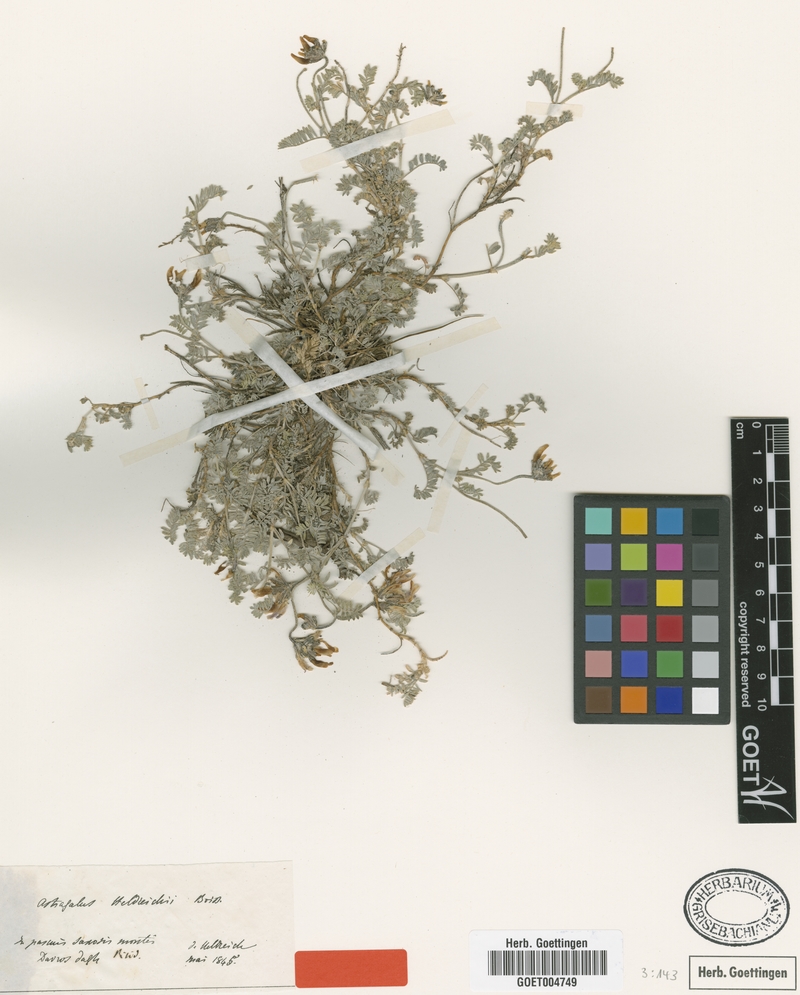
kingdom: Plantae
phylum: Tracheophyta
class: Magnoliopsida
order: Fabales
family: Fabaceae
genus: Astragalus
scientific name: Astragalus heldreichii
